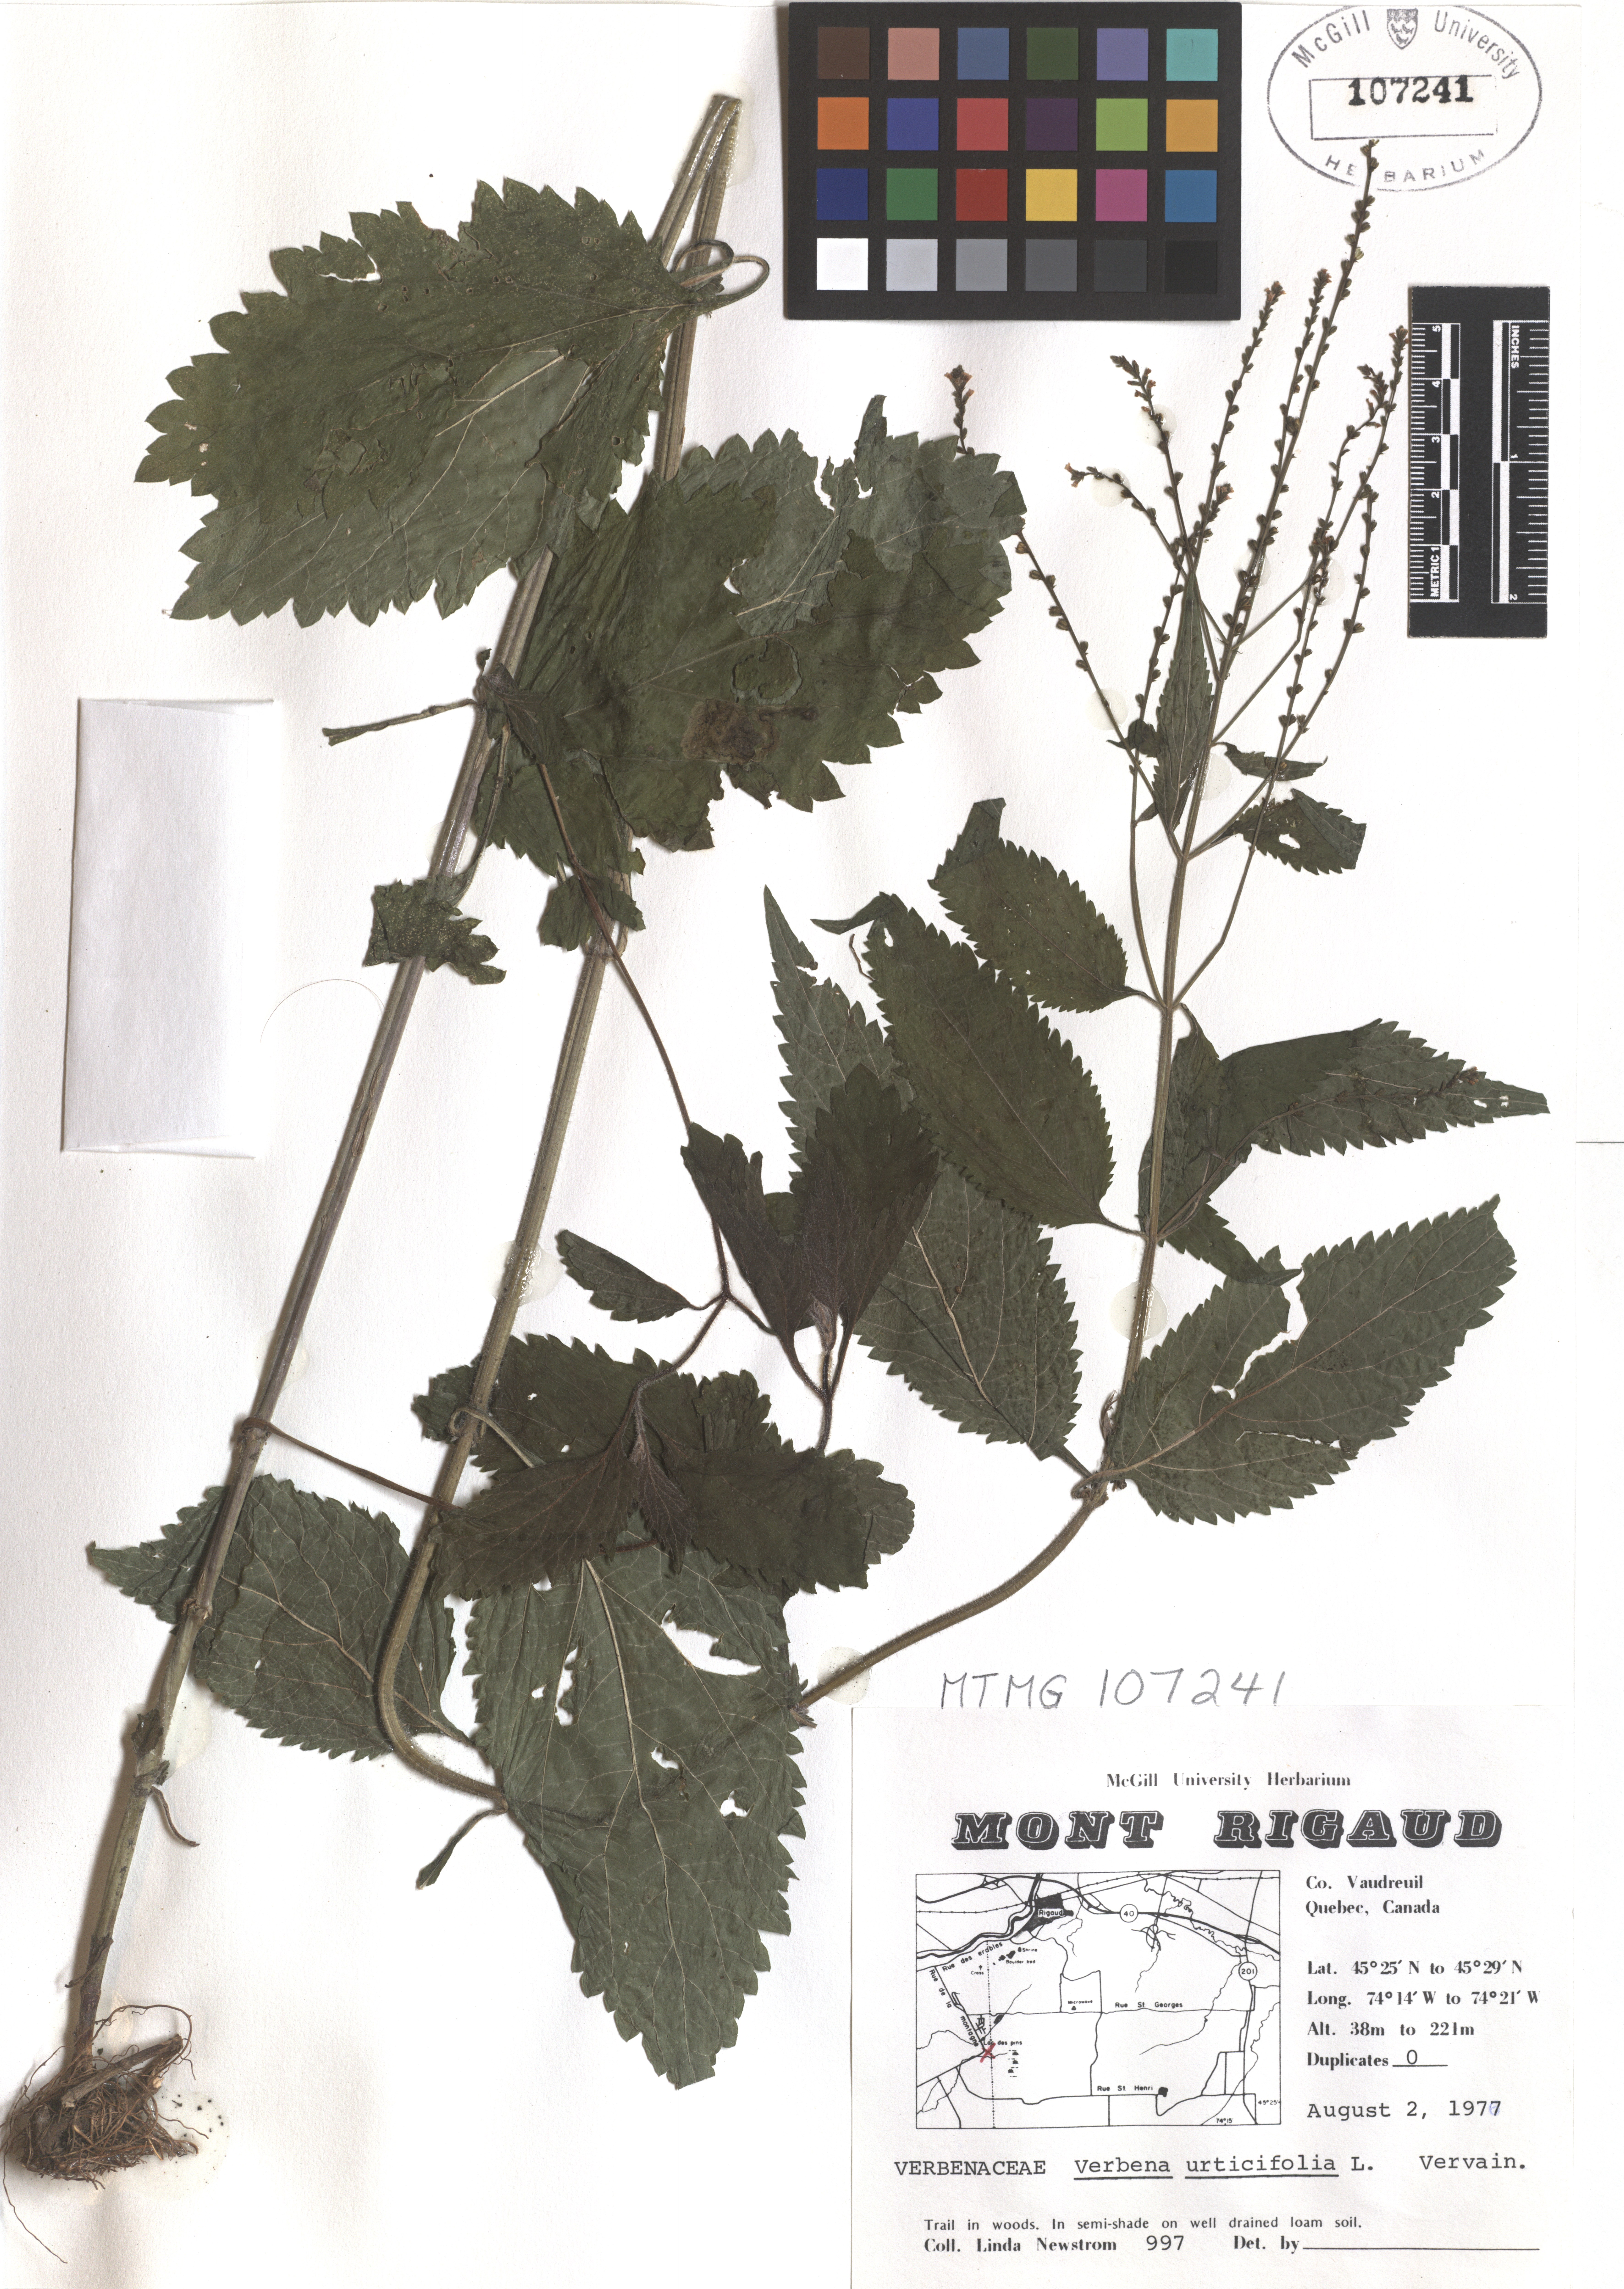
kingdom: Plantae
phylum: Tracheophyta
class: Magnoliopsida
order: Lamiales
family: Verbenaceae
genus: Verbena
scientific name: Verbena urticifolia
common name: Nettle-leaved vervain
